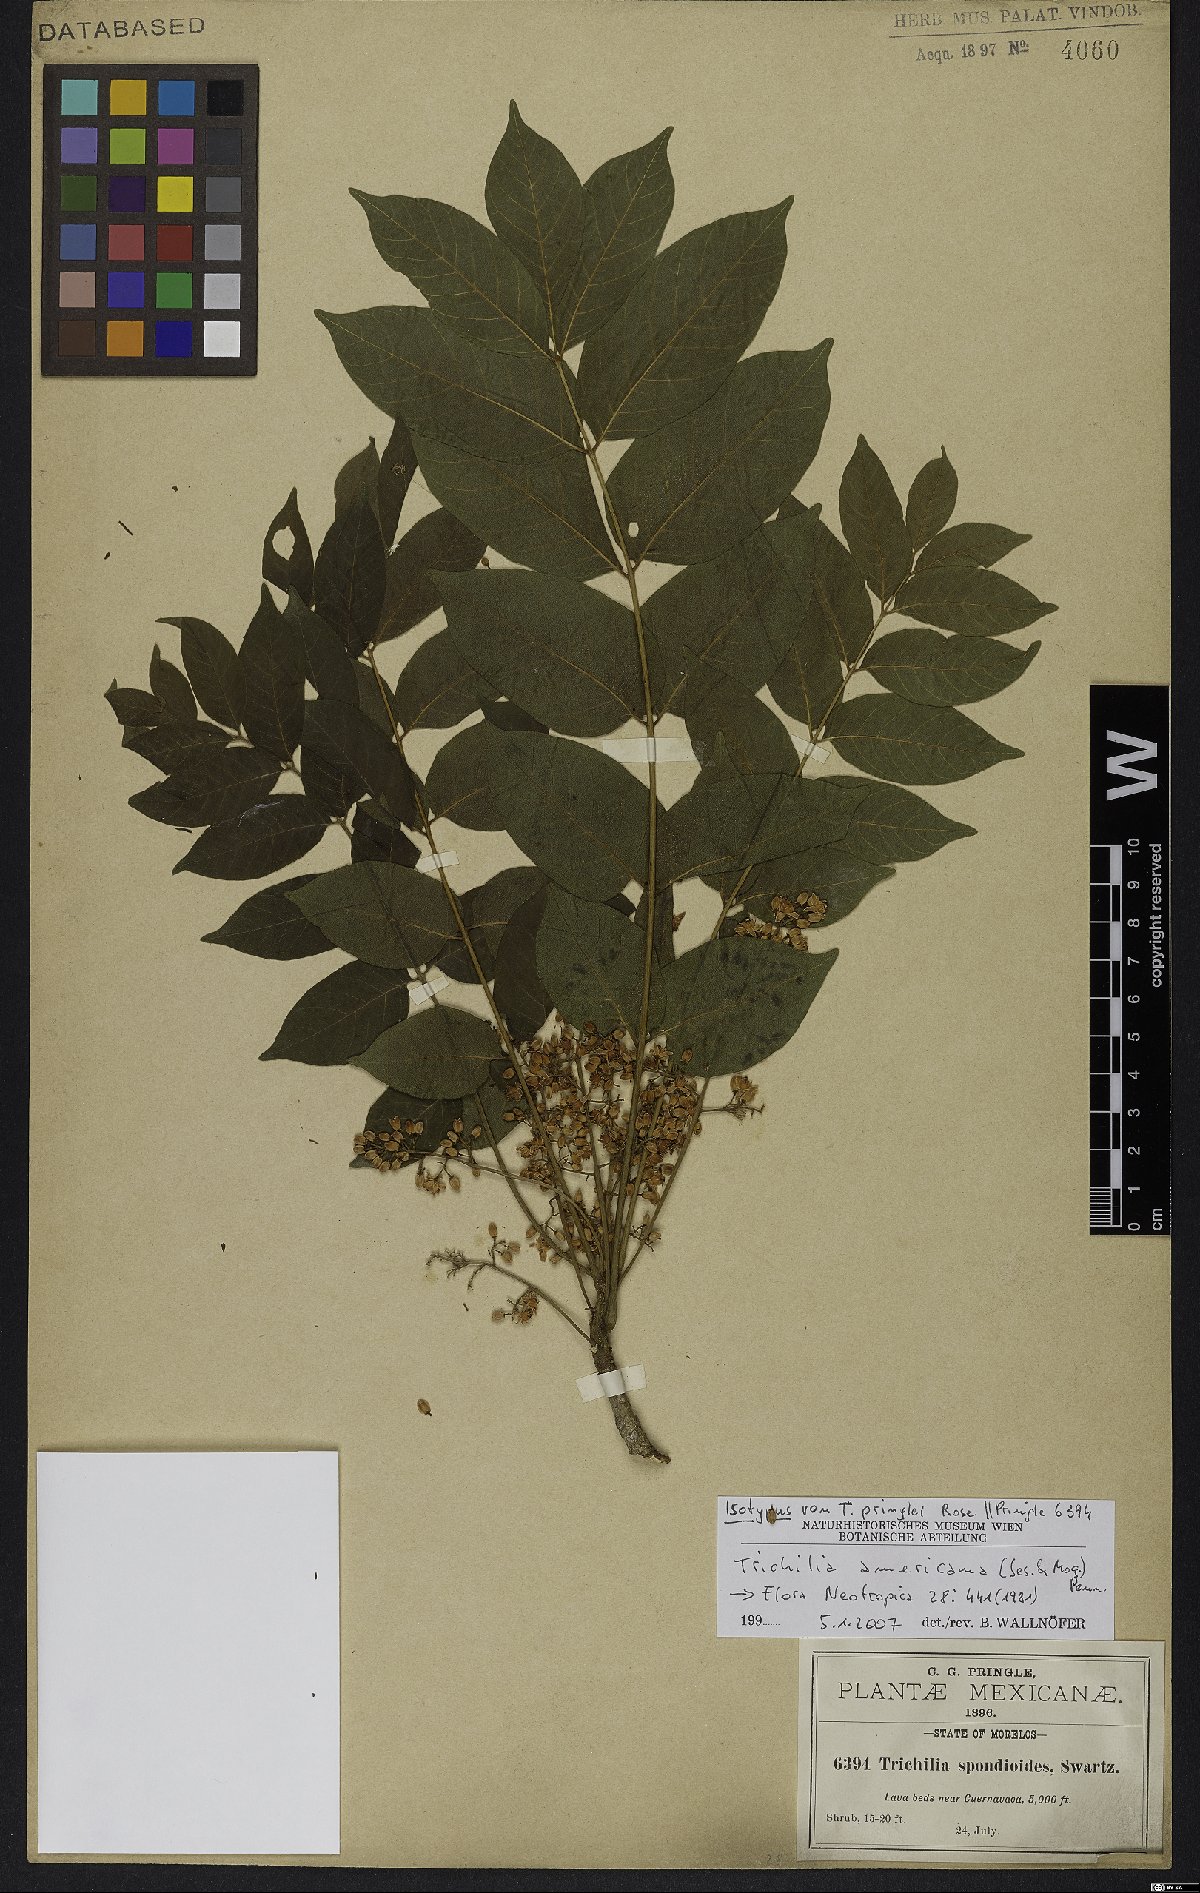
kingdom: Plantae
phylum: Tracheophyta
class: Magnoliopsida
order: Sapindales
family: Meliaceae
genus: Trichilia
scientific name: Trichilia americana
